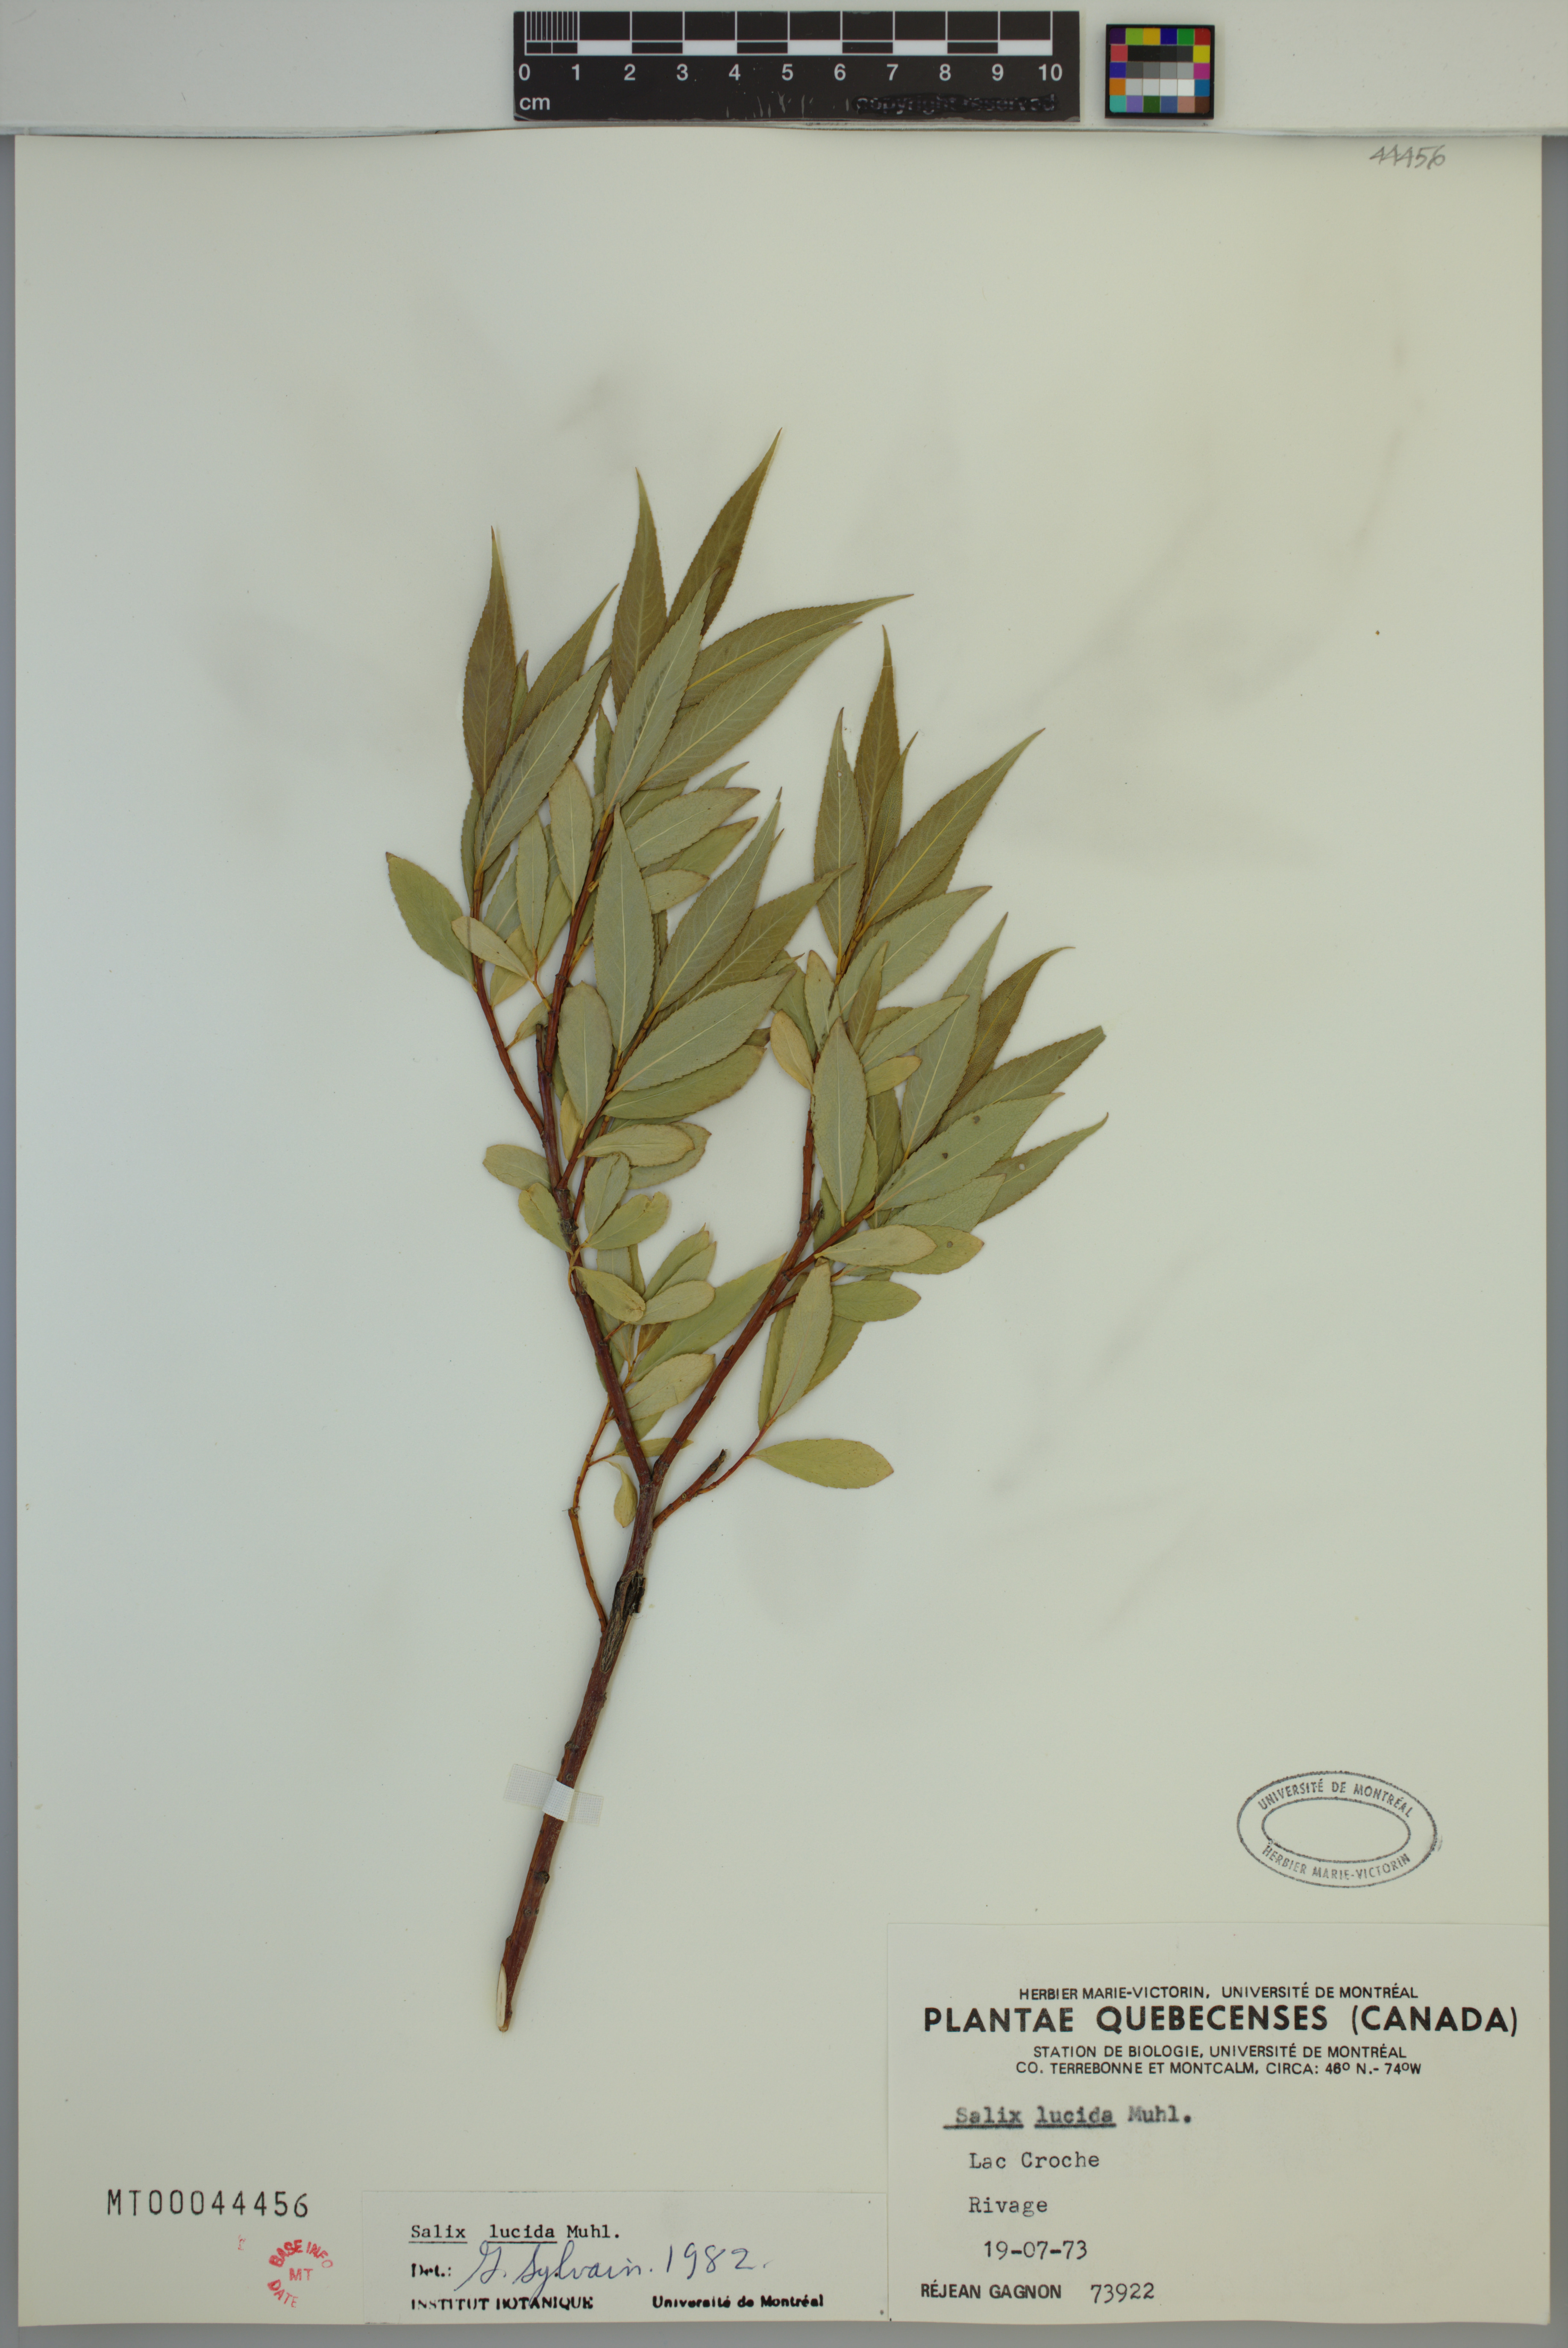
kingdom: Plantae
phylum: Tracheophyta
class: Magnoliopsida
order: Malpighiales
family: Salicaceae
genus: Salix
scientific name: Salix lucida
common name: Shining willow
